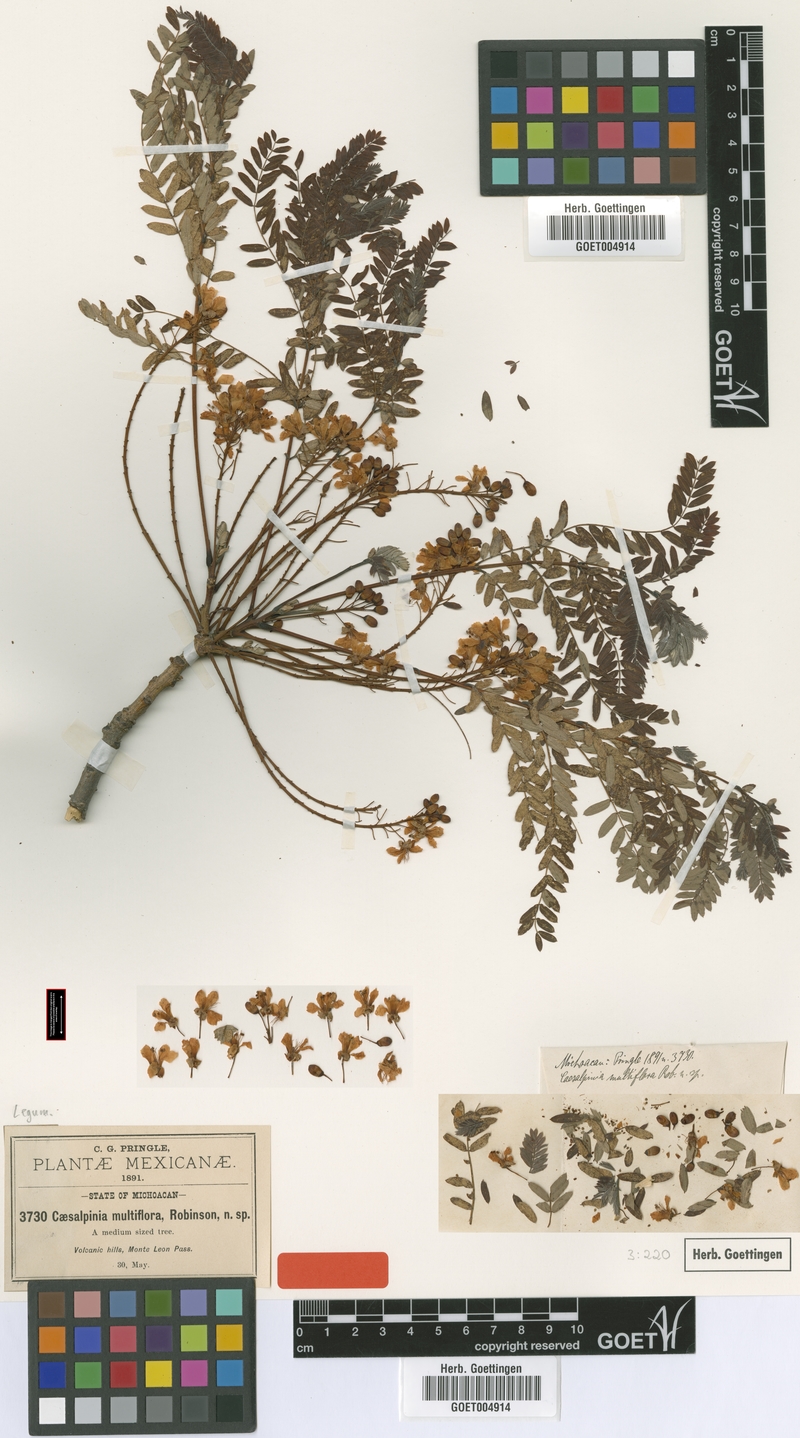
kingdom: Plantae
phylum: Tracheophyta
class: Magnoliopsida
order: Fabales
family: Fabaceae
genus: Conzattia
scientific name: Conzattia multiflora
